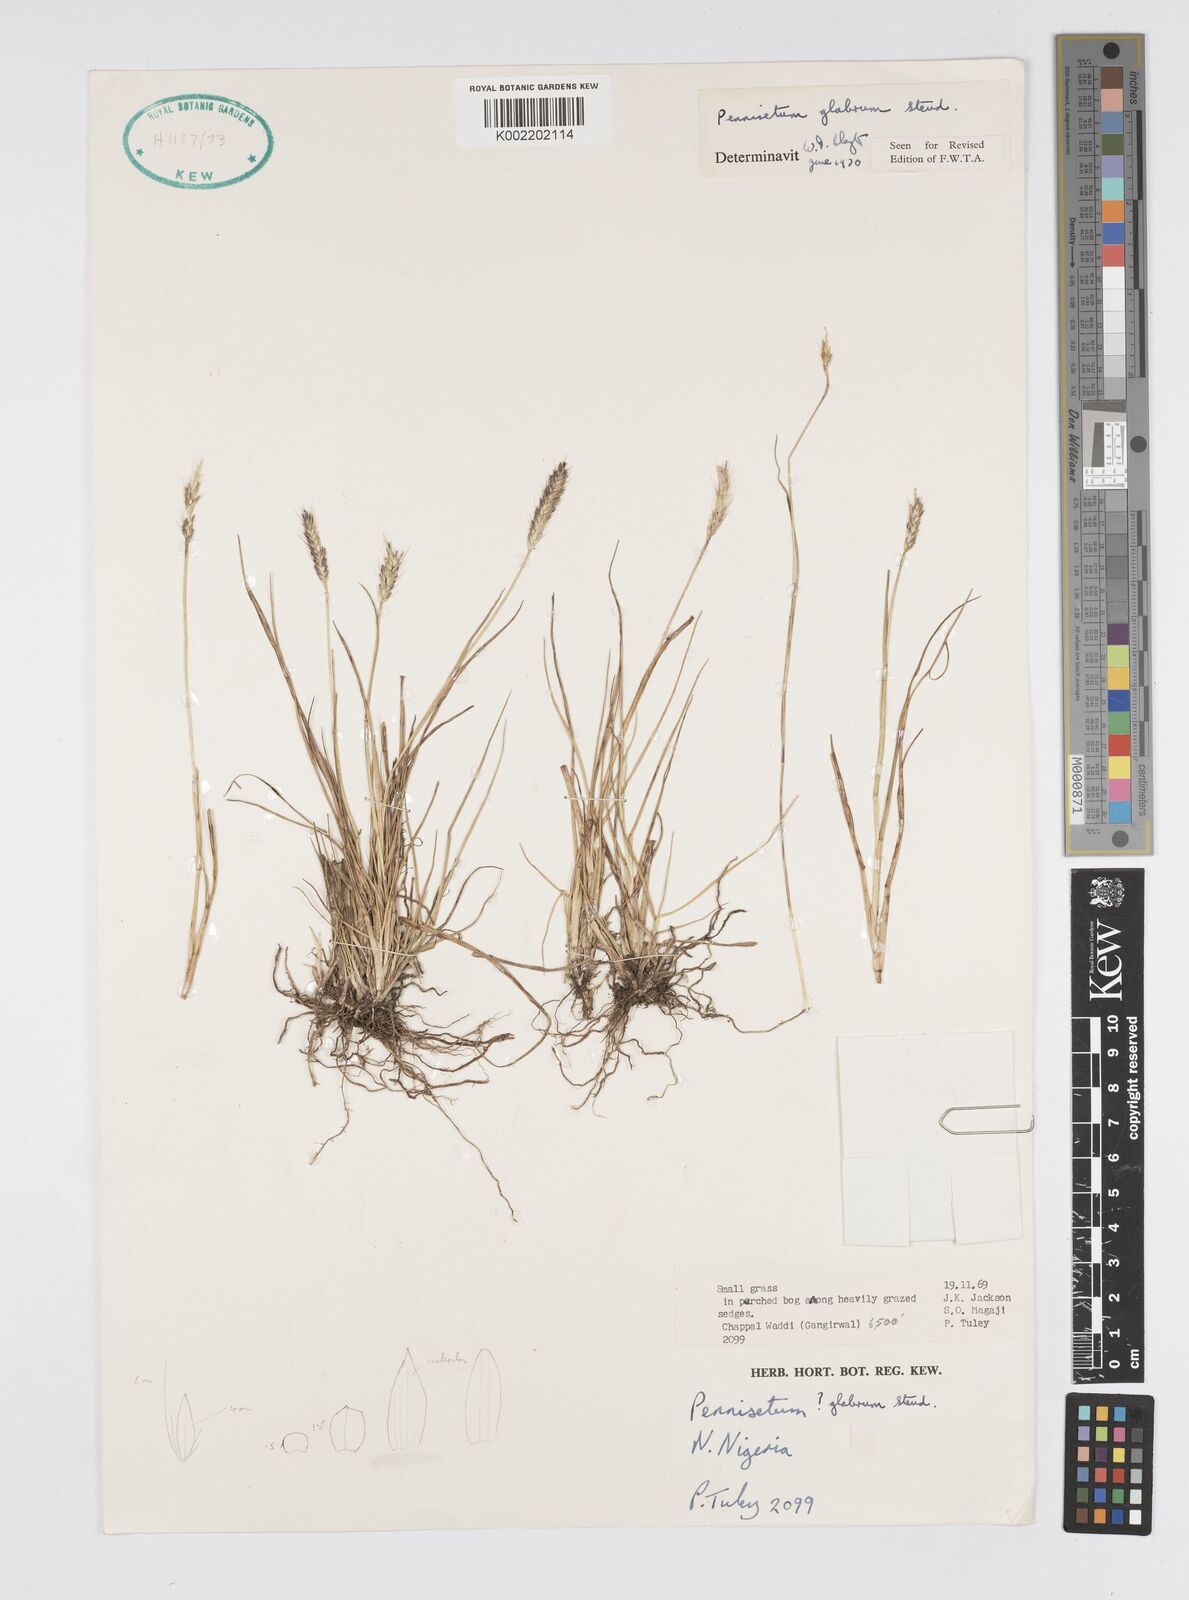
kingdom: Plantae
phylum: Tracheophyta
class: Liliopsida
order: Poales
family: Poaceae
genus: Cenchrus
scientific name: Cenchrus geniculatus
